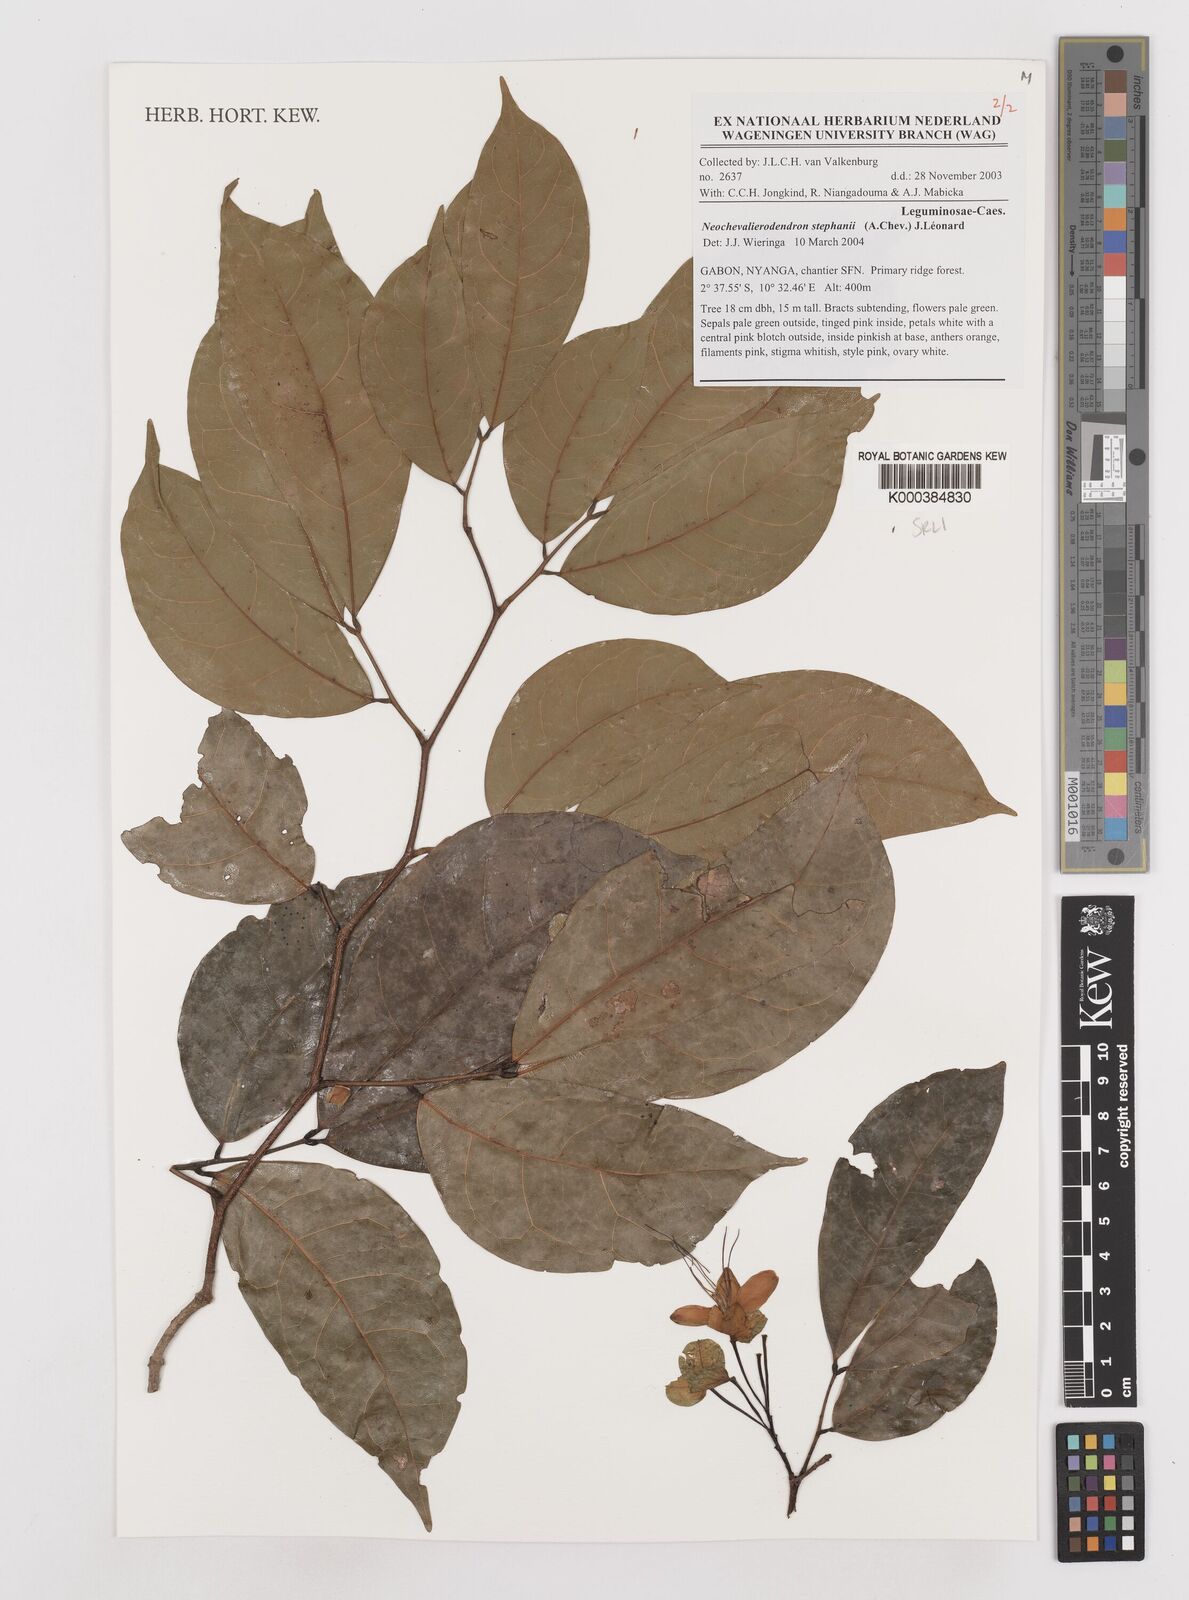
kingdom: Plantae
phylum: Tracheophyta
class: Magnoliopsida
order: Fabales
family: Fabaceae
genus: Neochevalierodendron
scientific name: Neochevalierodendron stephanii
